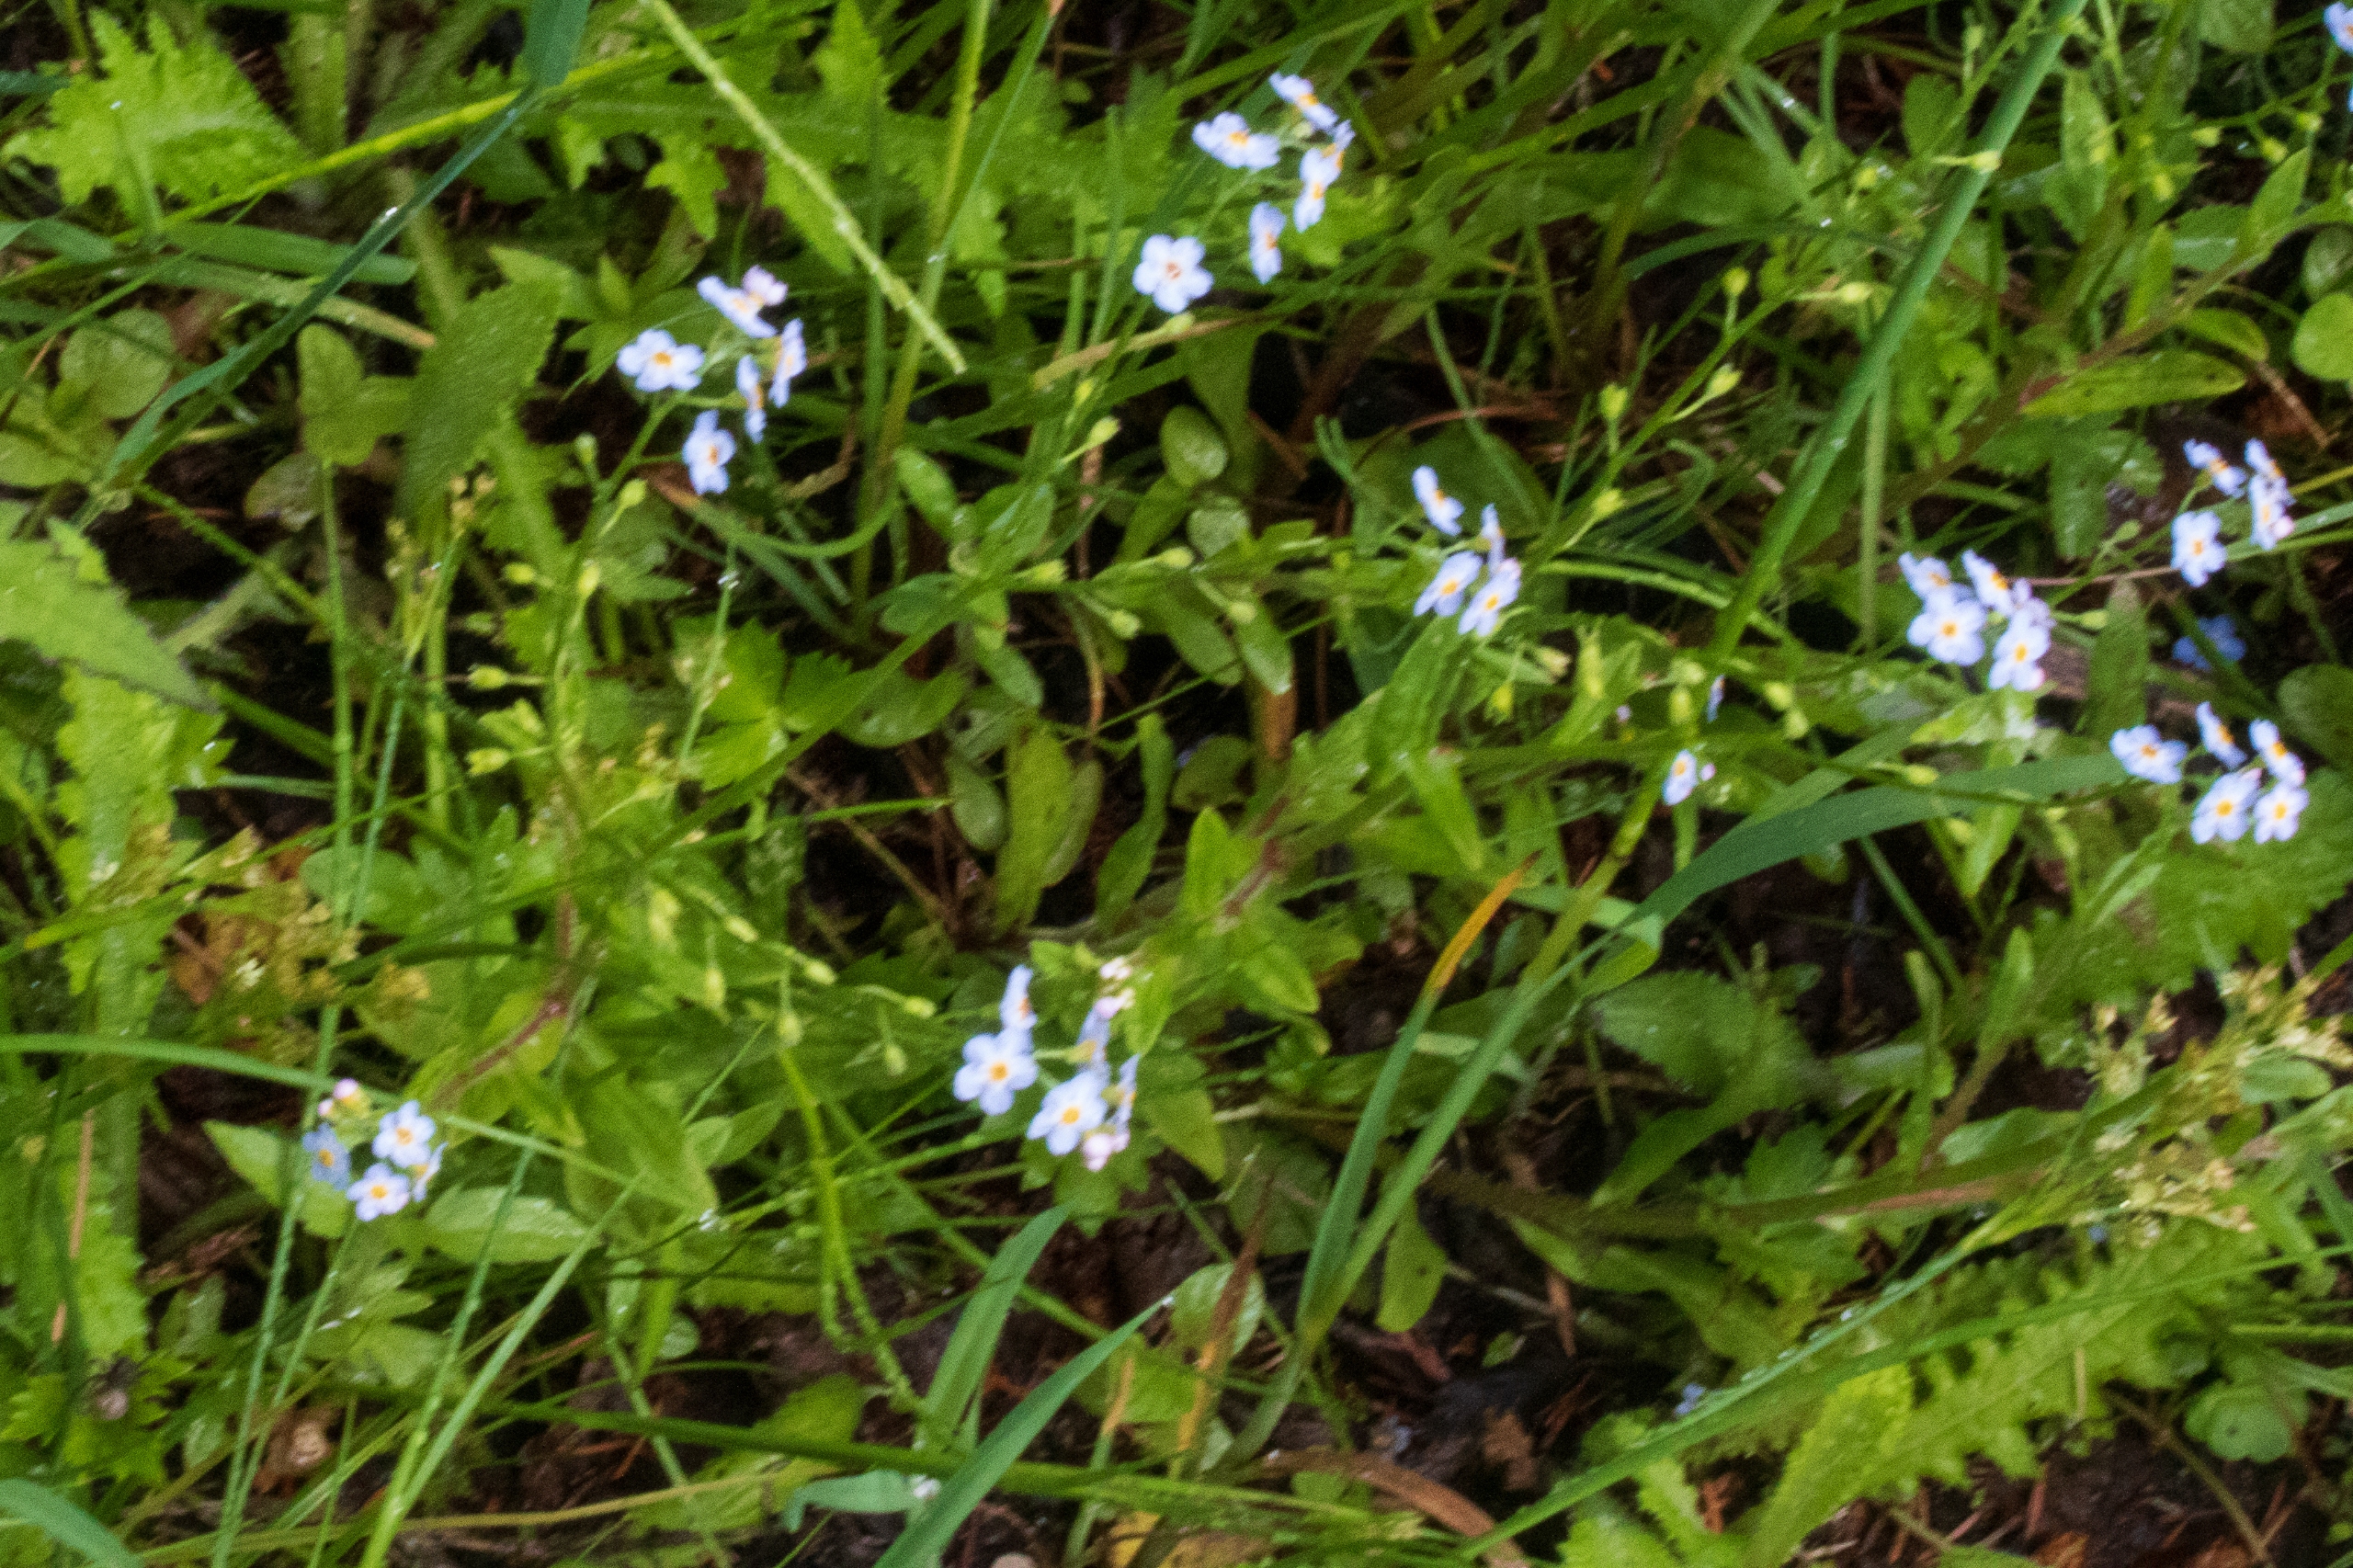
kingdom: Plantae
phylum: Tracheophyta
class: Magnoliopsida
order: Boraginales
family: Boraginaceae
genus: Myosotis
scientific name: Myosotis scorpioides
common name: Eng-forglemmigej
